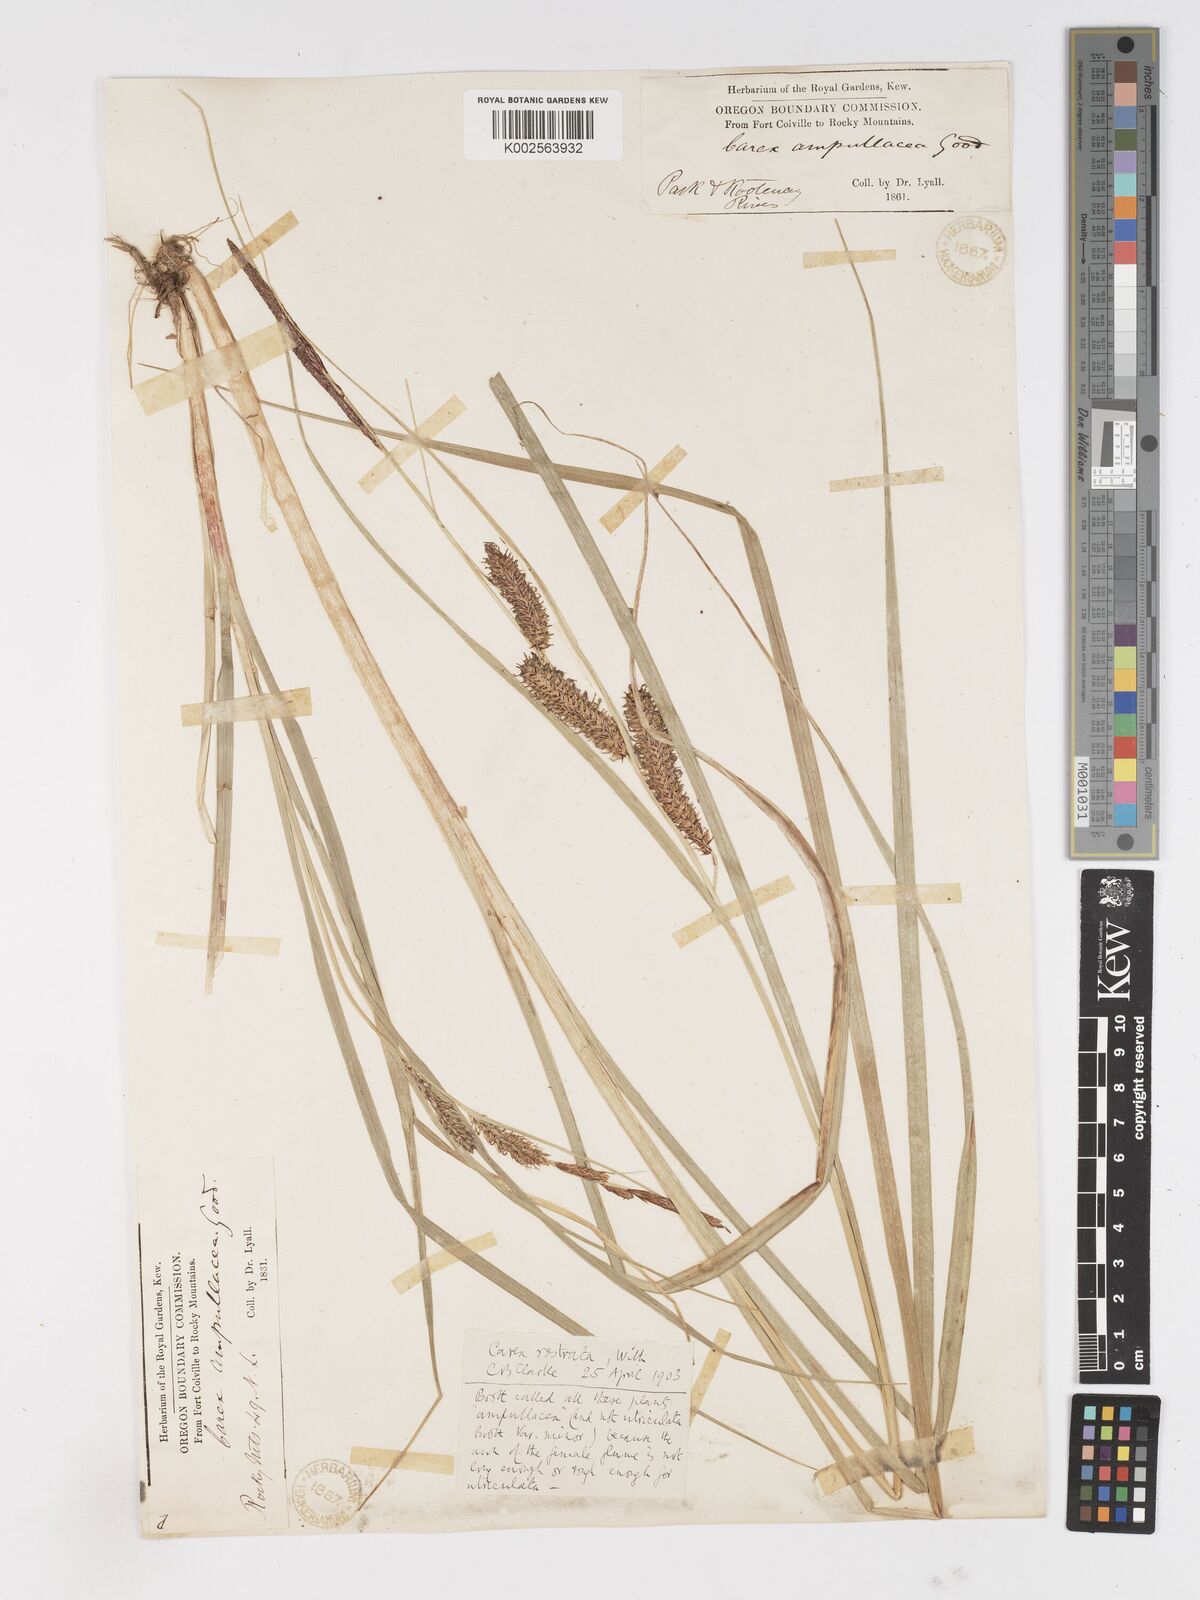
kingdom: Plantae
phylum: Tracheophyta
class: Liliopsida
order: Poales
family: Cyperaceae
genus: Carex
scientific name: Carex rostrata
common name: Bottle sedge
